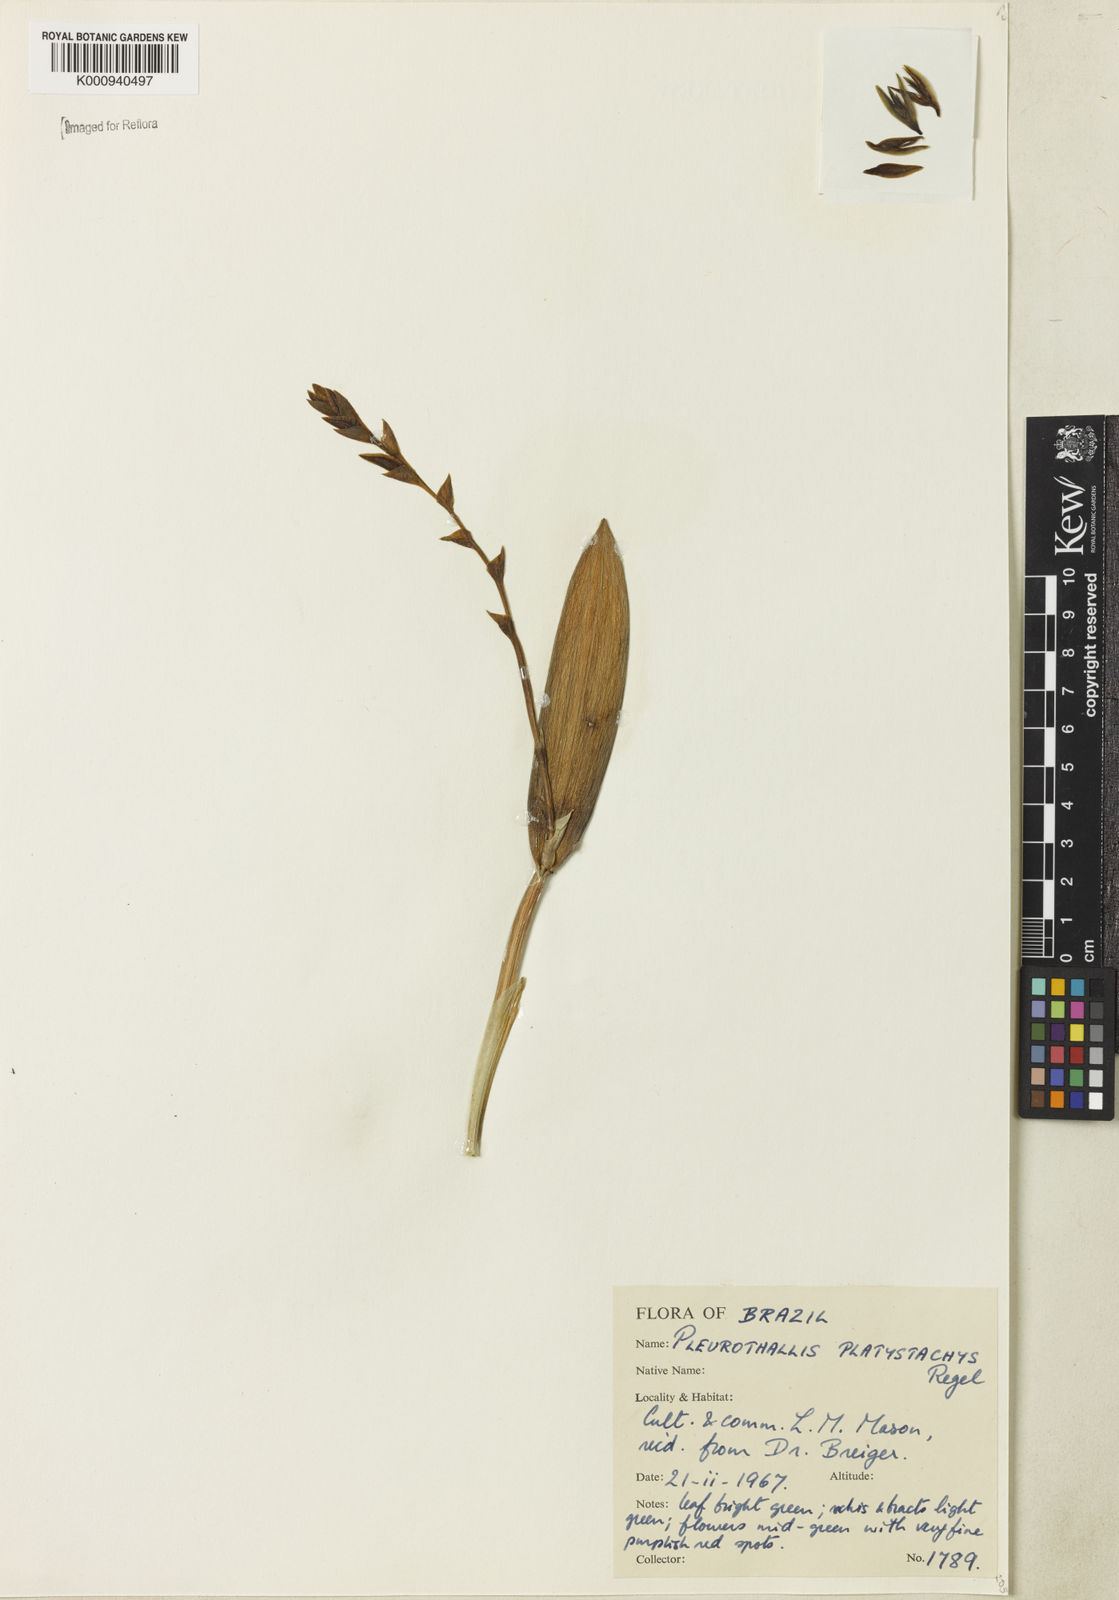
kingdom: Plantae
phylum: Tracheophyta
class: Liliopsida
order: Asparagales
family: Orchidaceae
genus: Acianthera
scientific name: Acianthera
